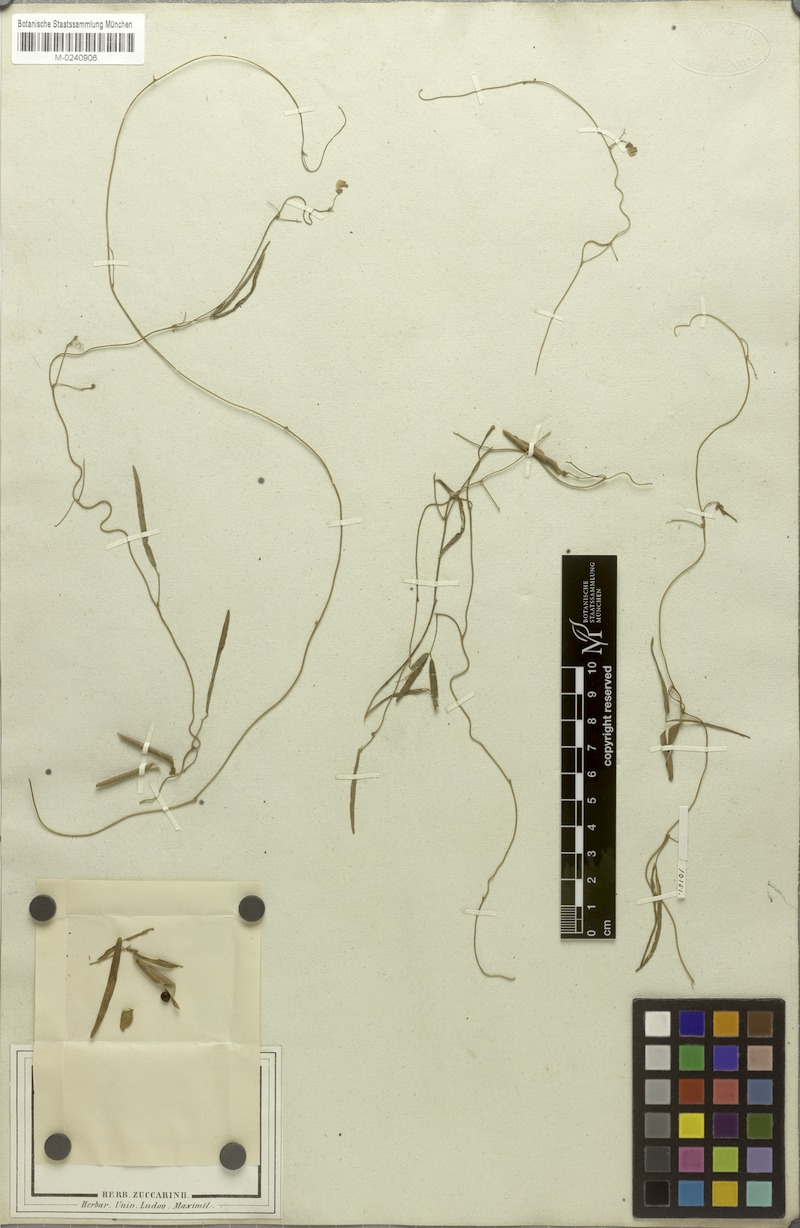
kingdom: Plantae
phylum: Tracheophyta
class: Magnoliopsida
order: Fabales
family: Fabaceae
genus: Dolichos
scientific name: Dolichos angustifolius
